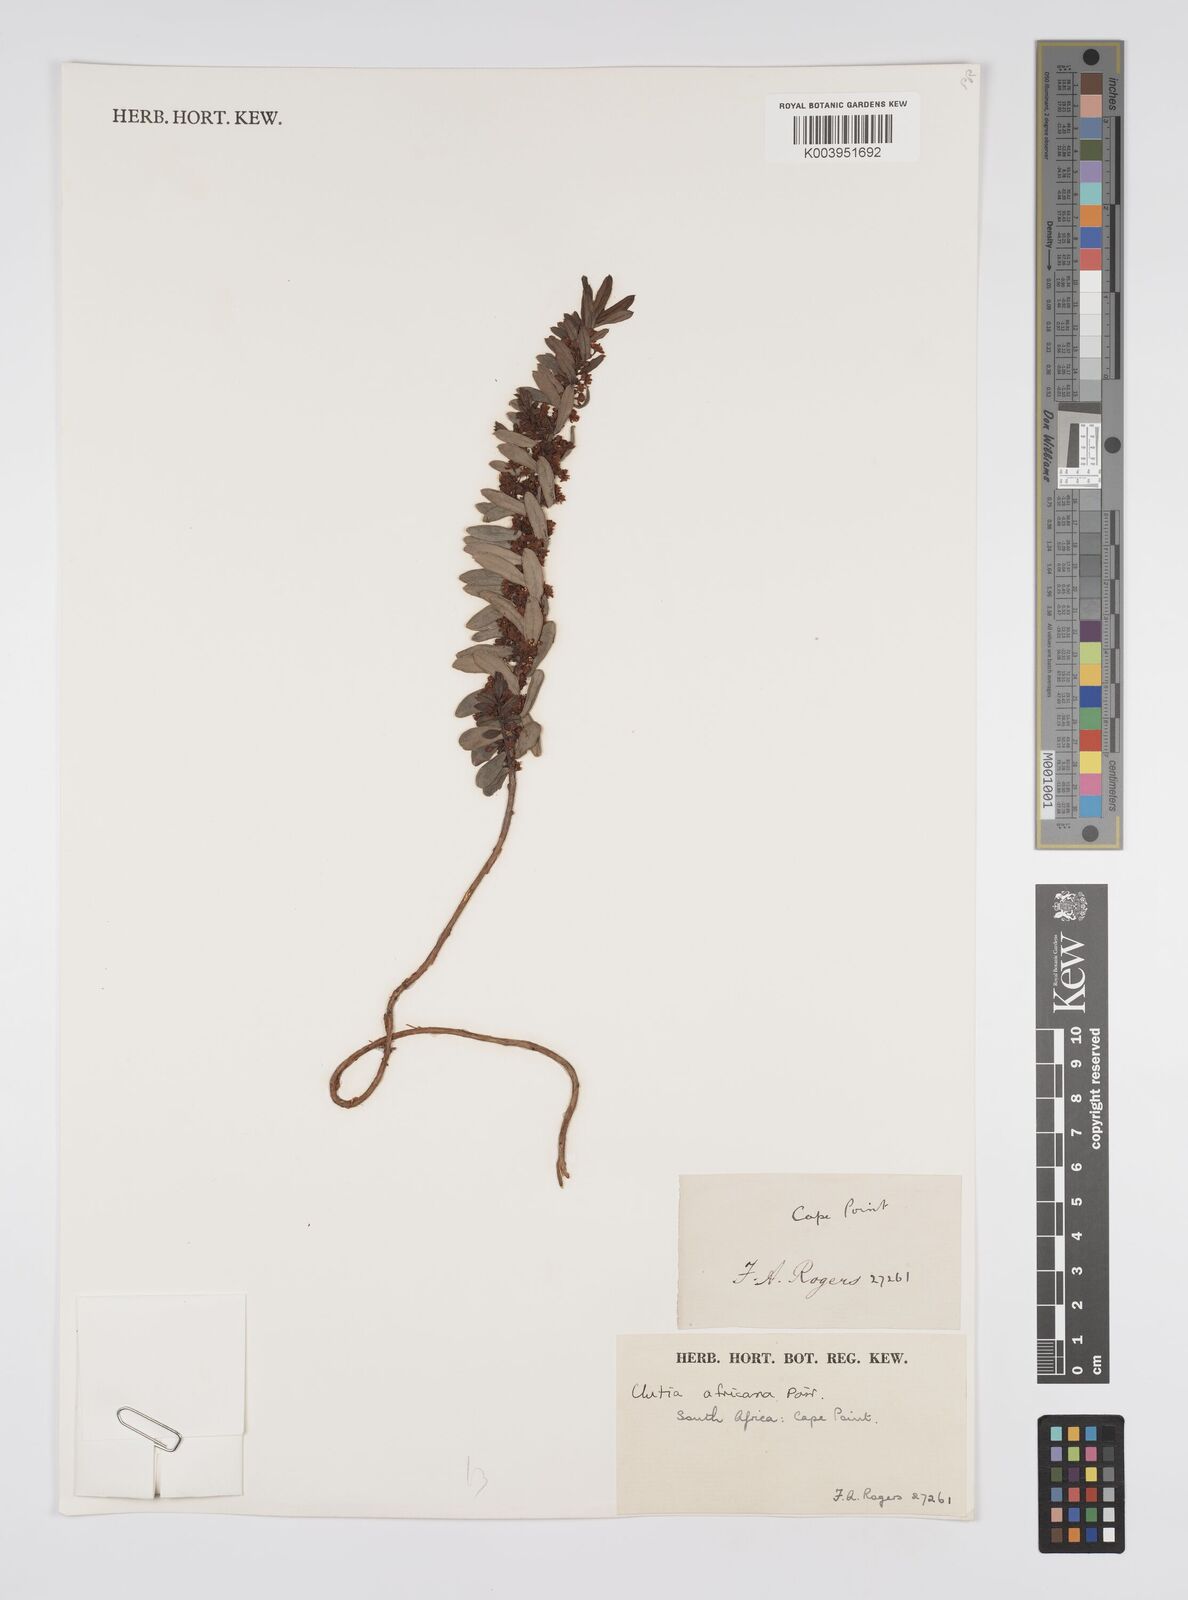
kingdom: Plantae
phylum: Tracheophyta
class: Magnoliopsida
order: Malpighiales
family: Peraceae
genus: Clutia
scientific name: Clutia africana
